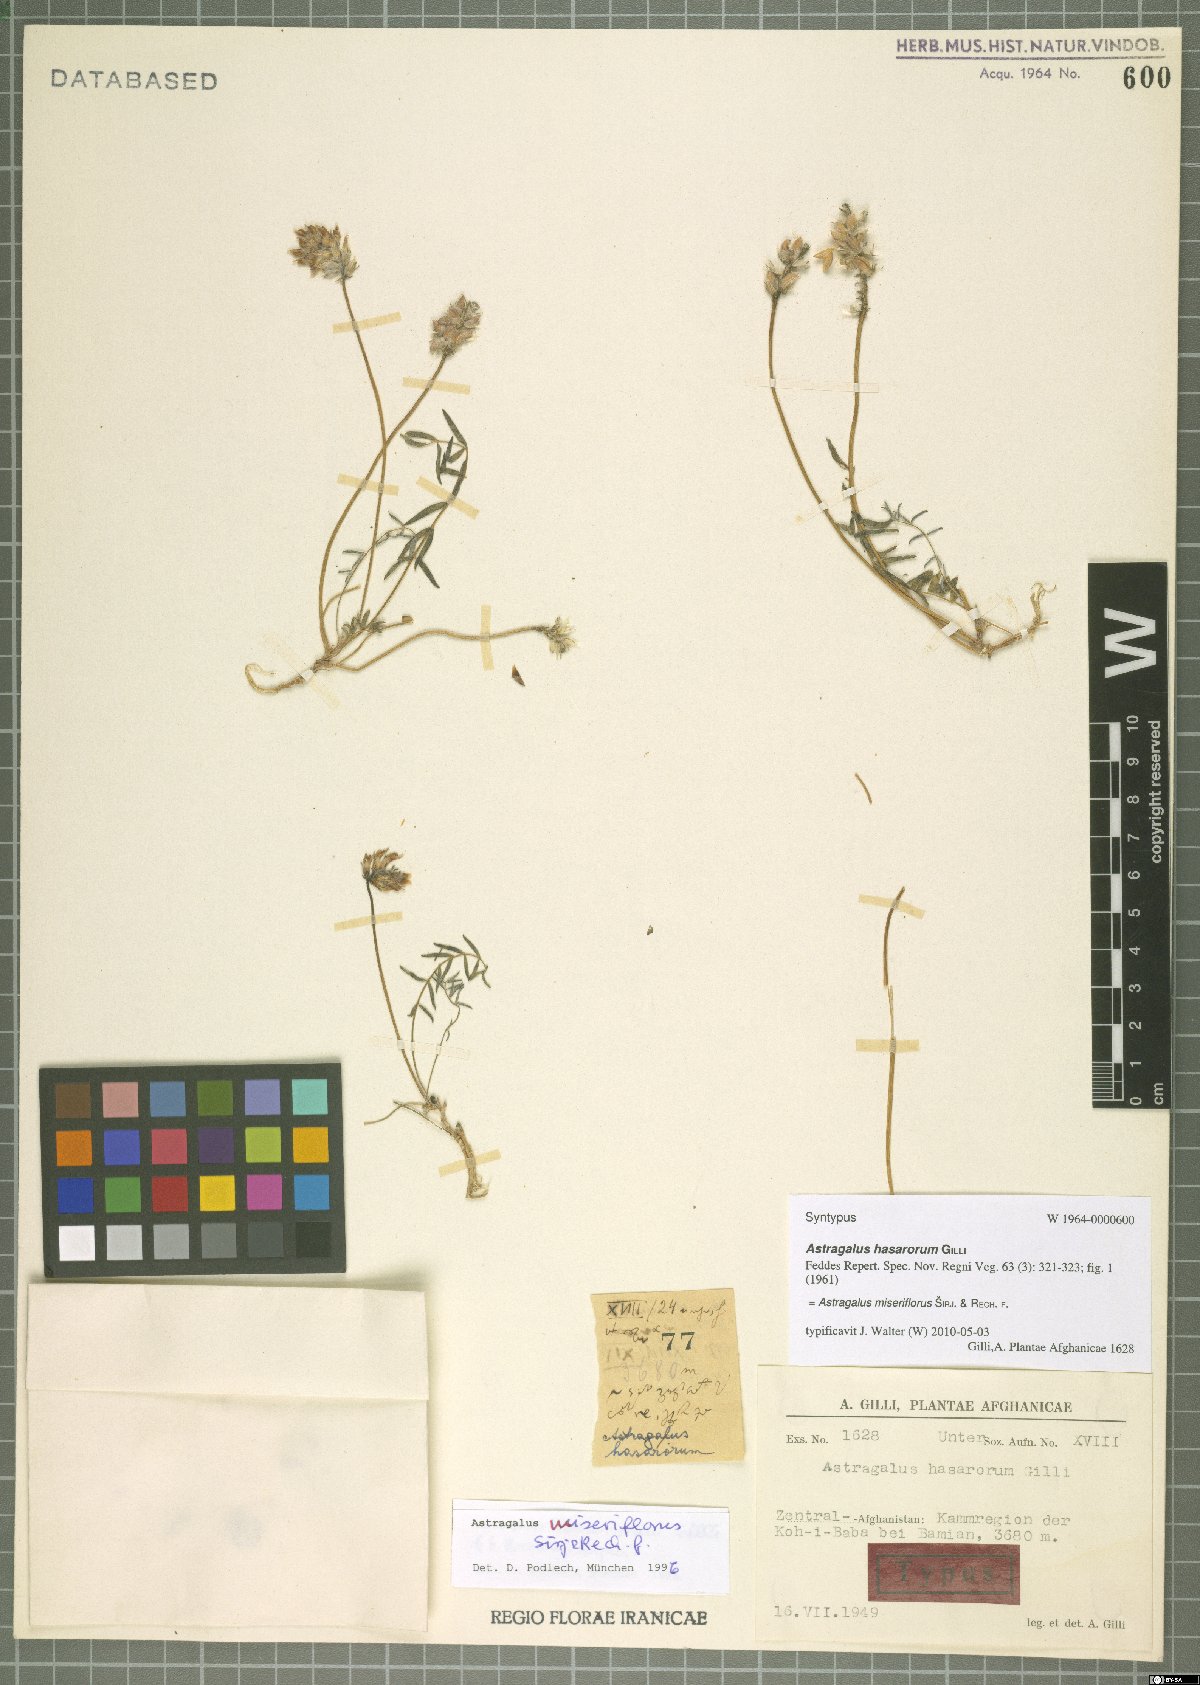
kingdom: Plantae
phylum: Tracheophyta
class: Magnoliopsida
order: Fabales
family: Fabaceae
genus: Astragalus
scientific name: Astragalus miseriflorus
